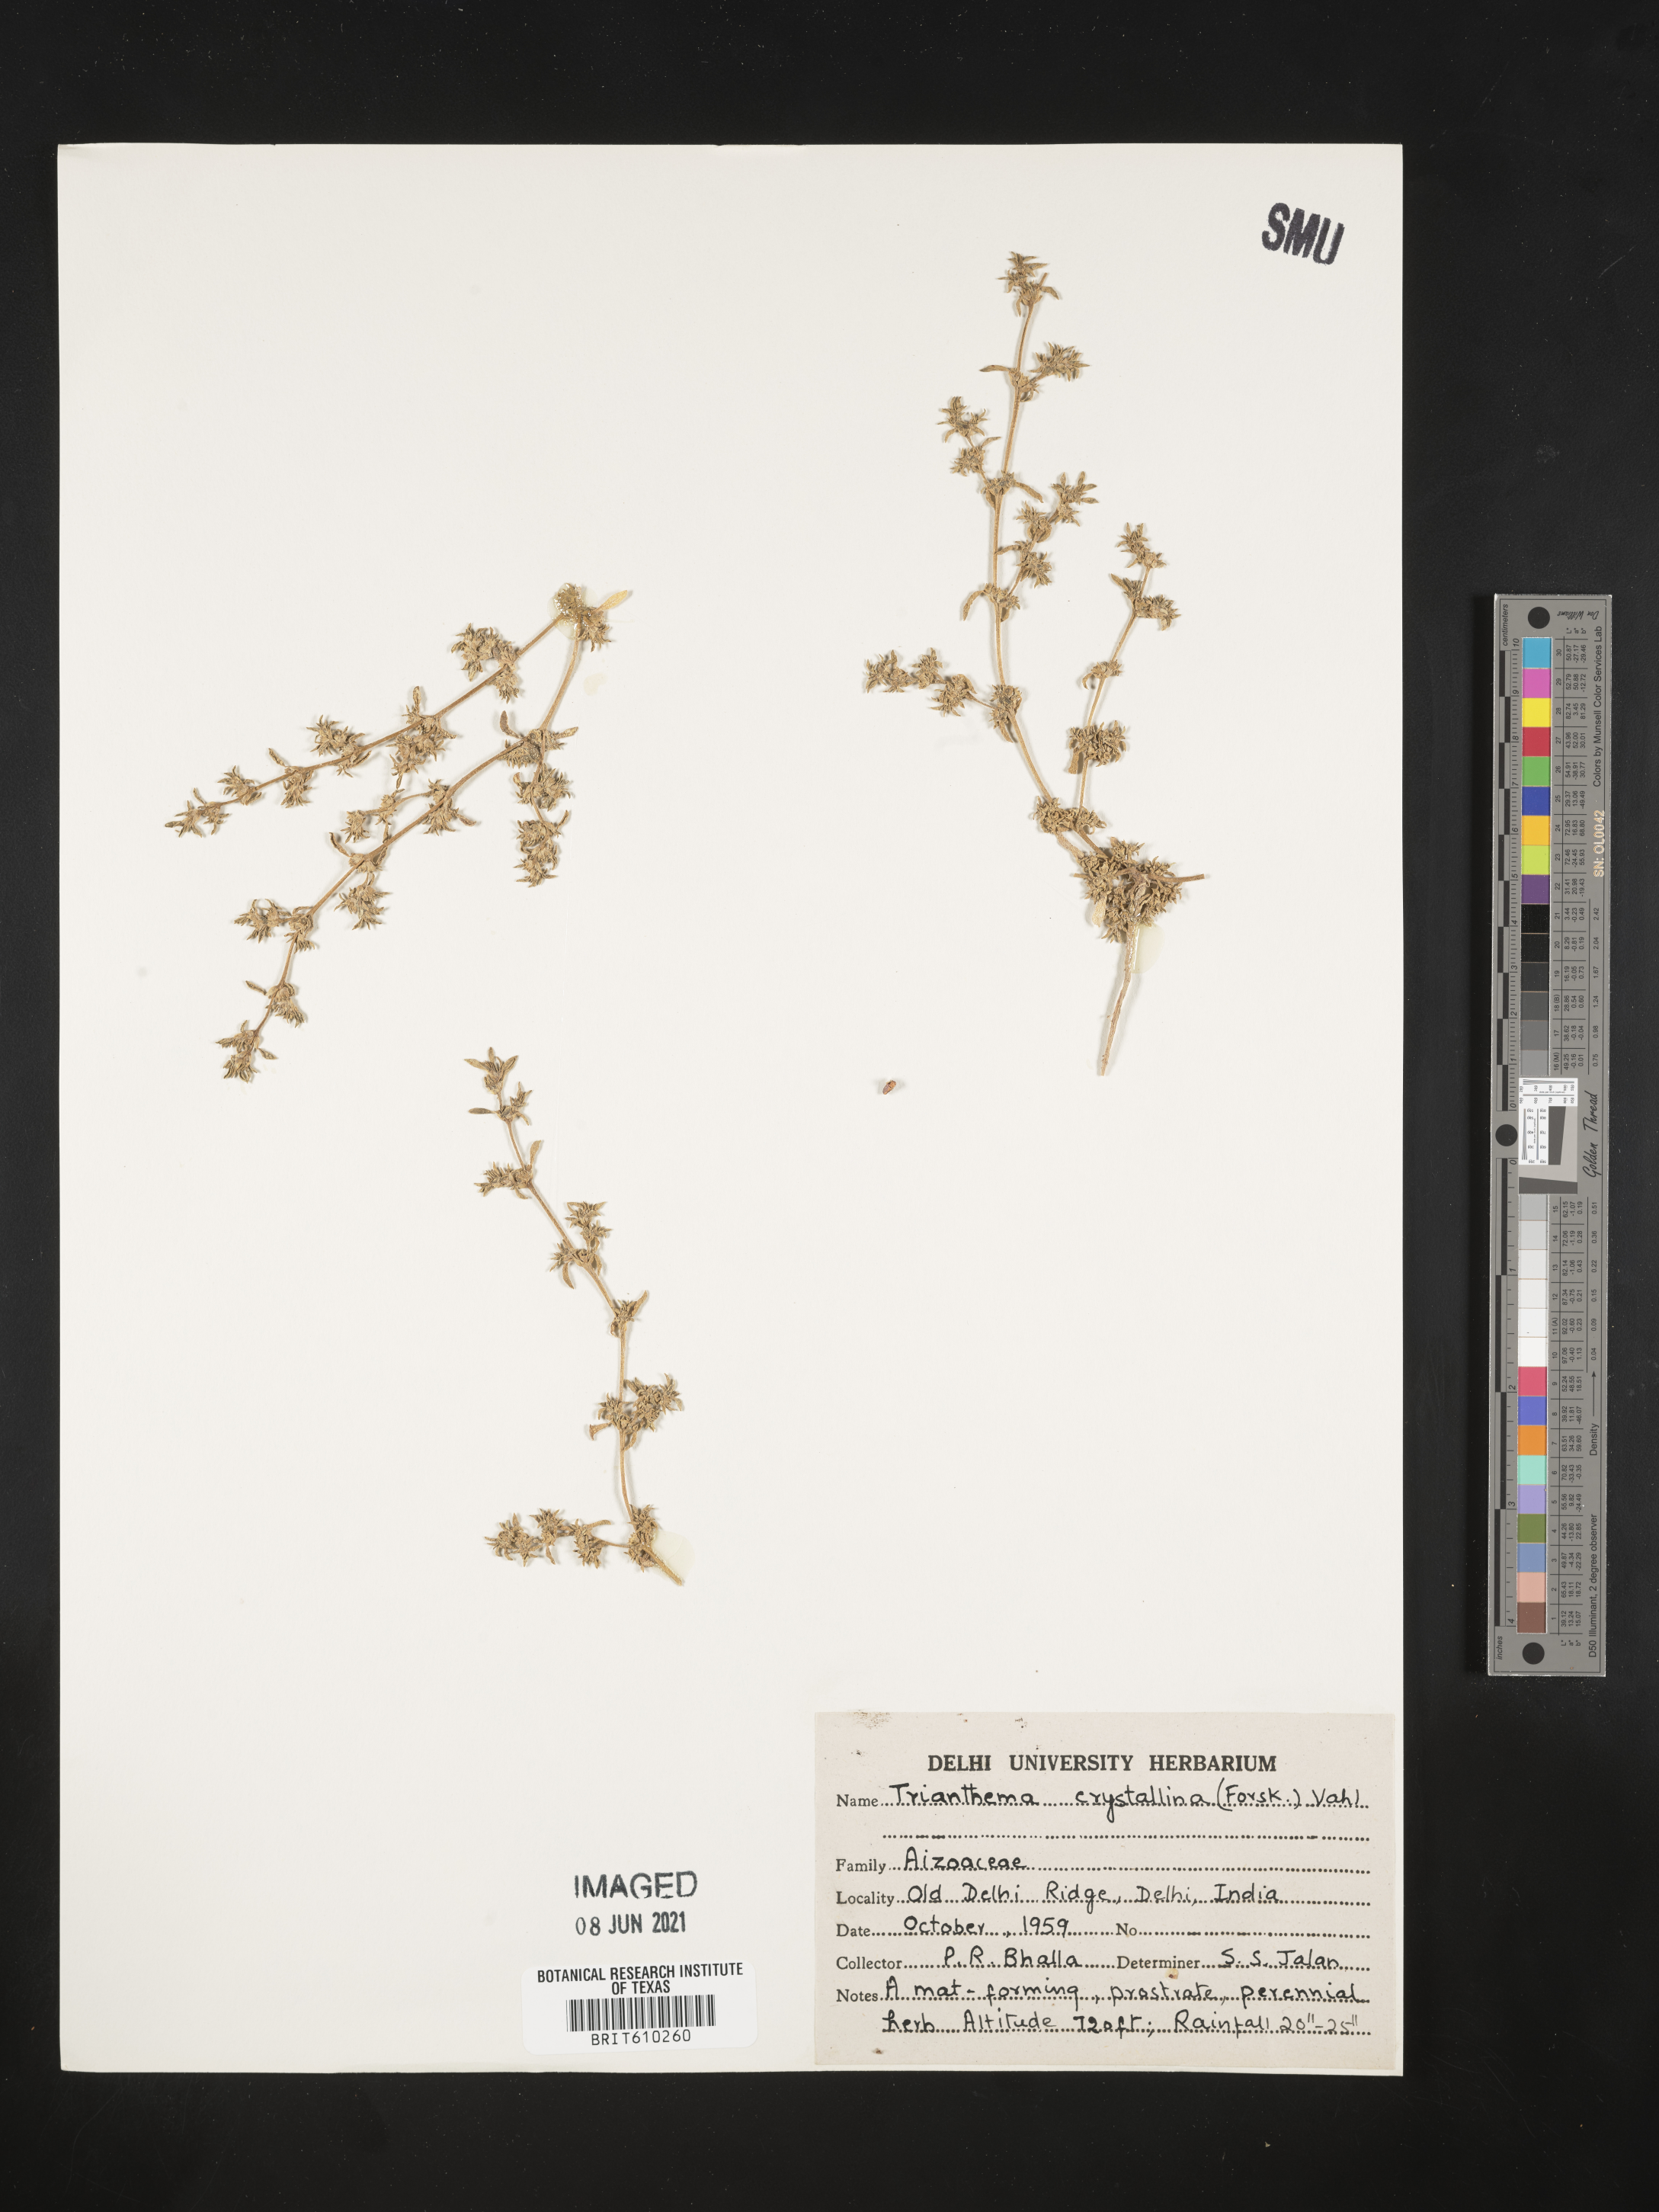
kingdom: Plantae
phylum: Tracheophyta
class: Magnoliopsida
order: Caryophyllales
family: Aizoaceae
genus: Trianthema
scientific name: Trianthema crystallinum
